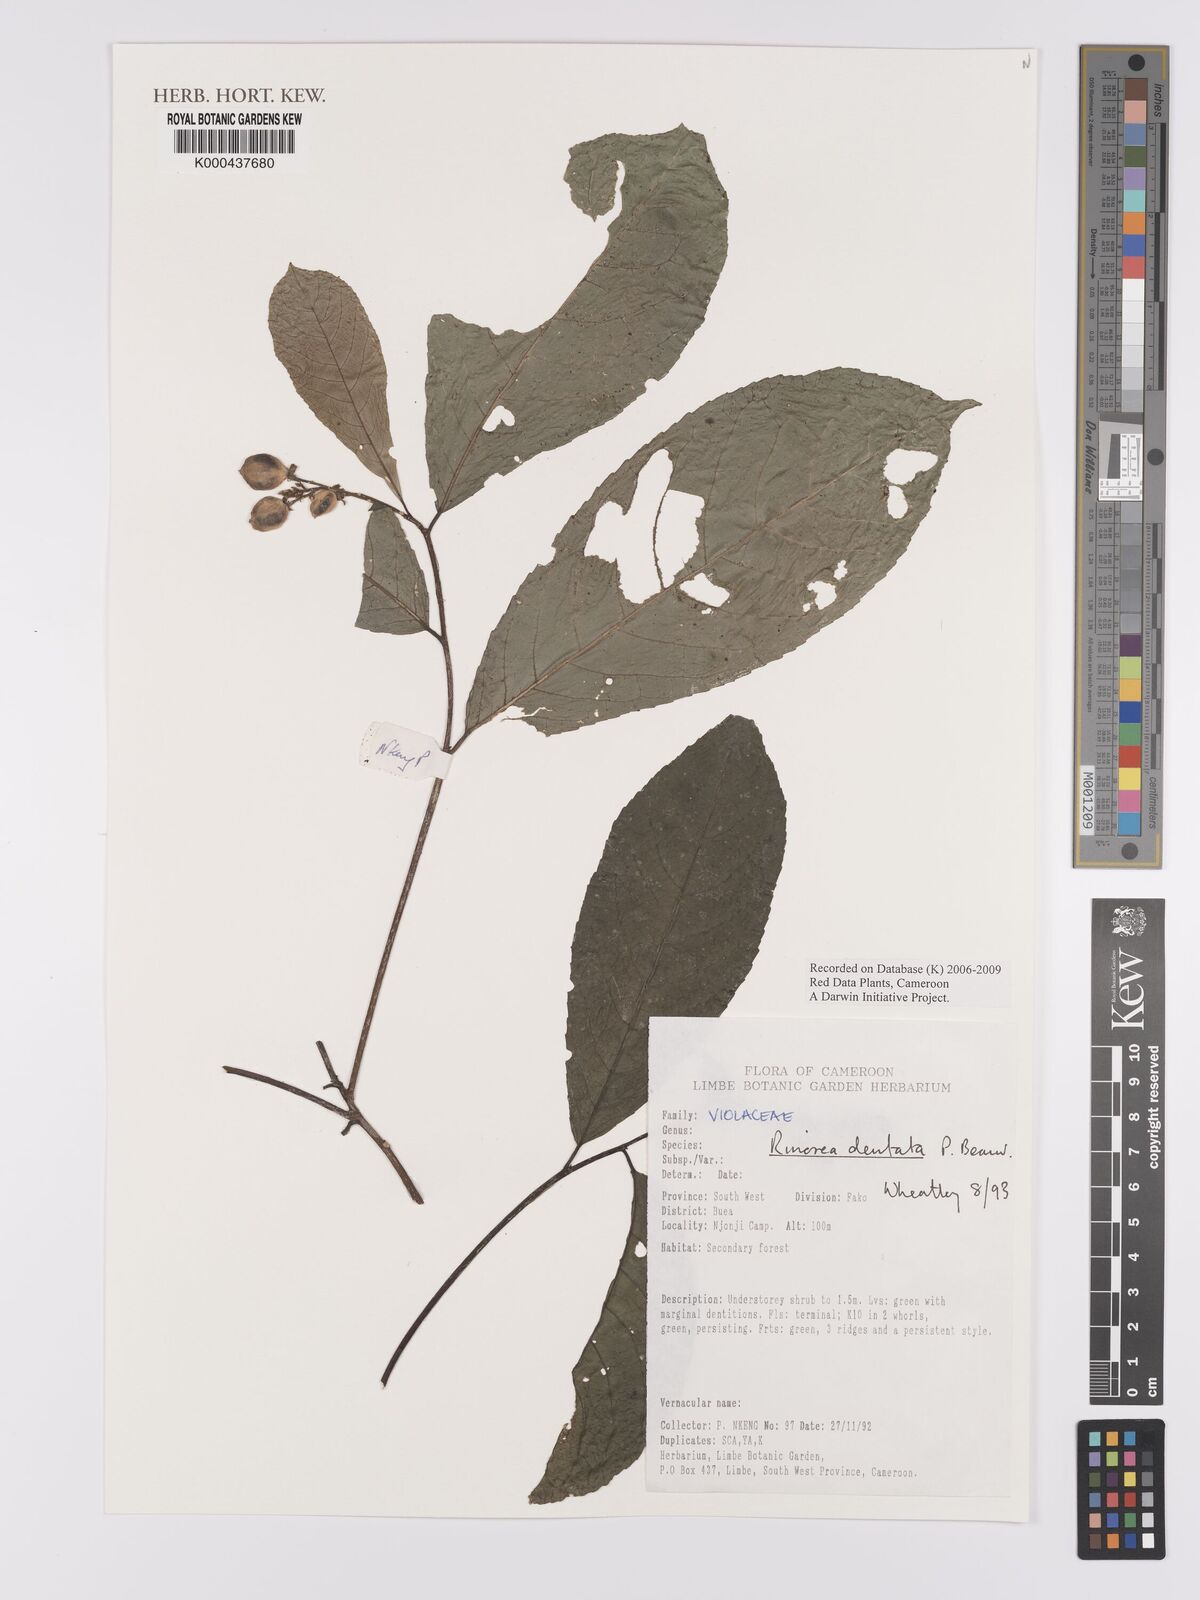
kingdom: Plantae
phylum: Tracheophyta
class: Magnoliopsida
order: Malpighiales
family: Violaceae
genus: Rinorea
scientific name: Rinorea dentata
